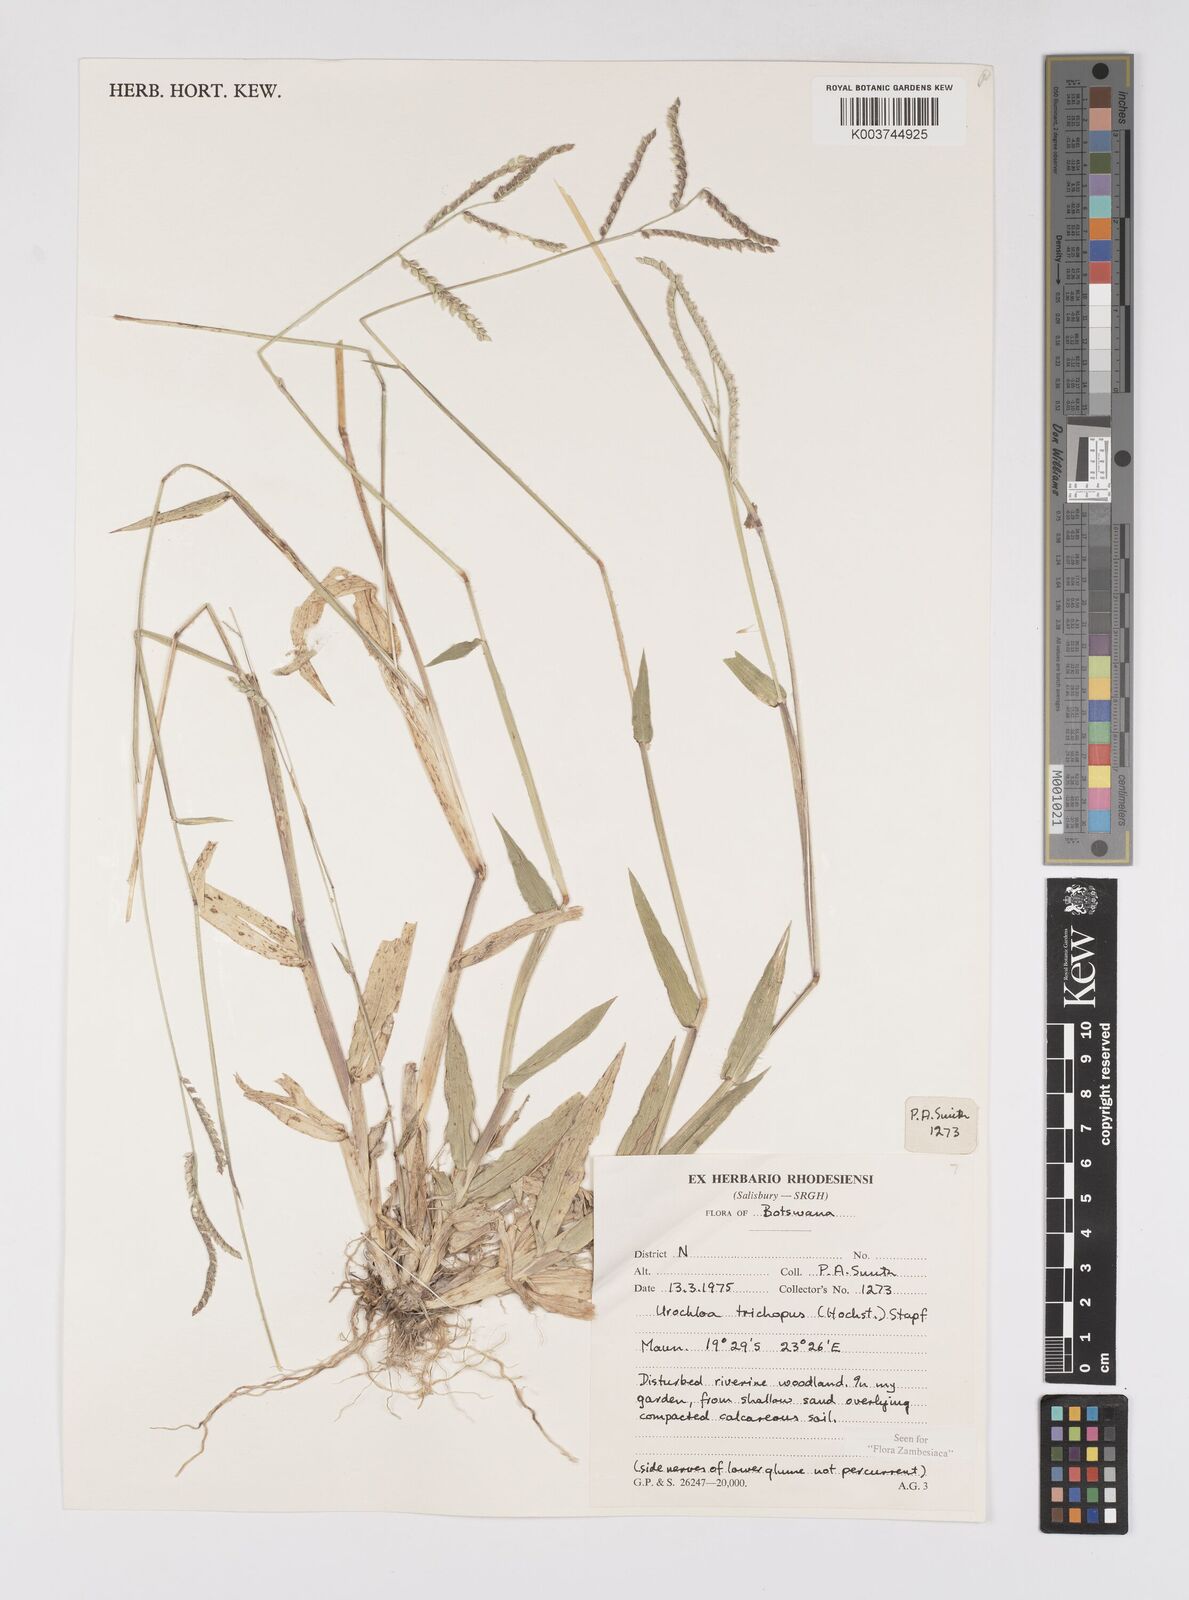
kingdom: Plantae
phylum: Tracheophyta
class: Liliopsida
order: Poales
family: Poaceae
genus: Urochloa
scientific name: Urochloa trichopus
